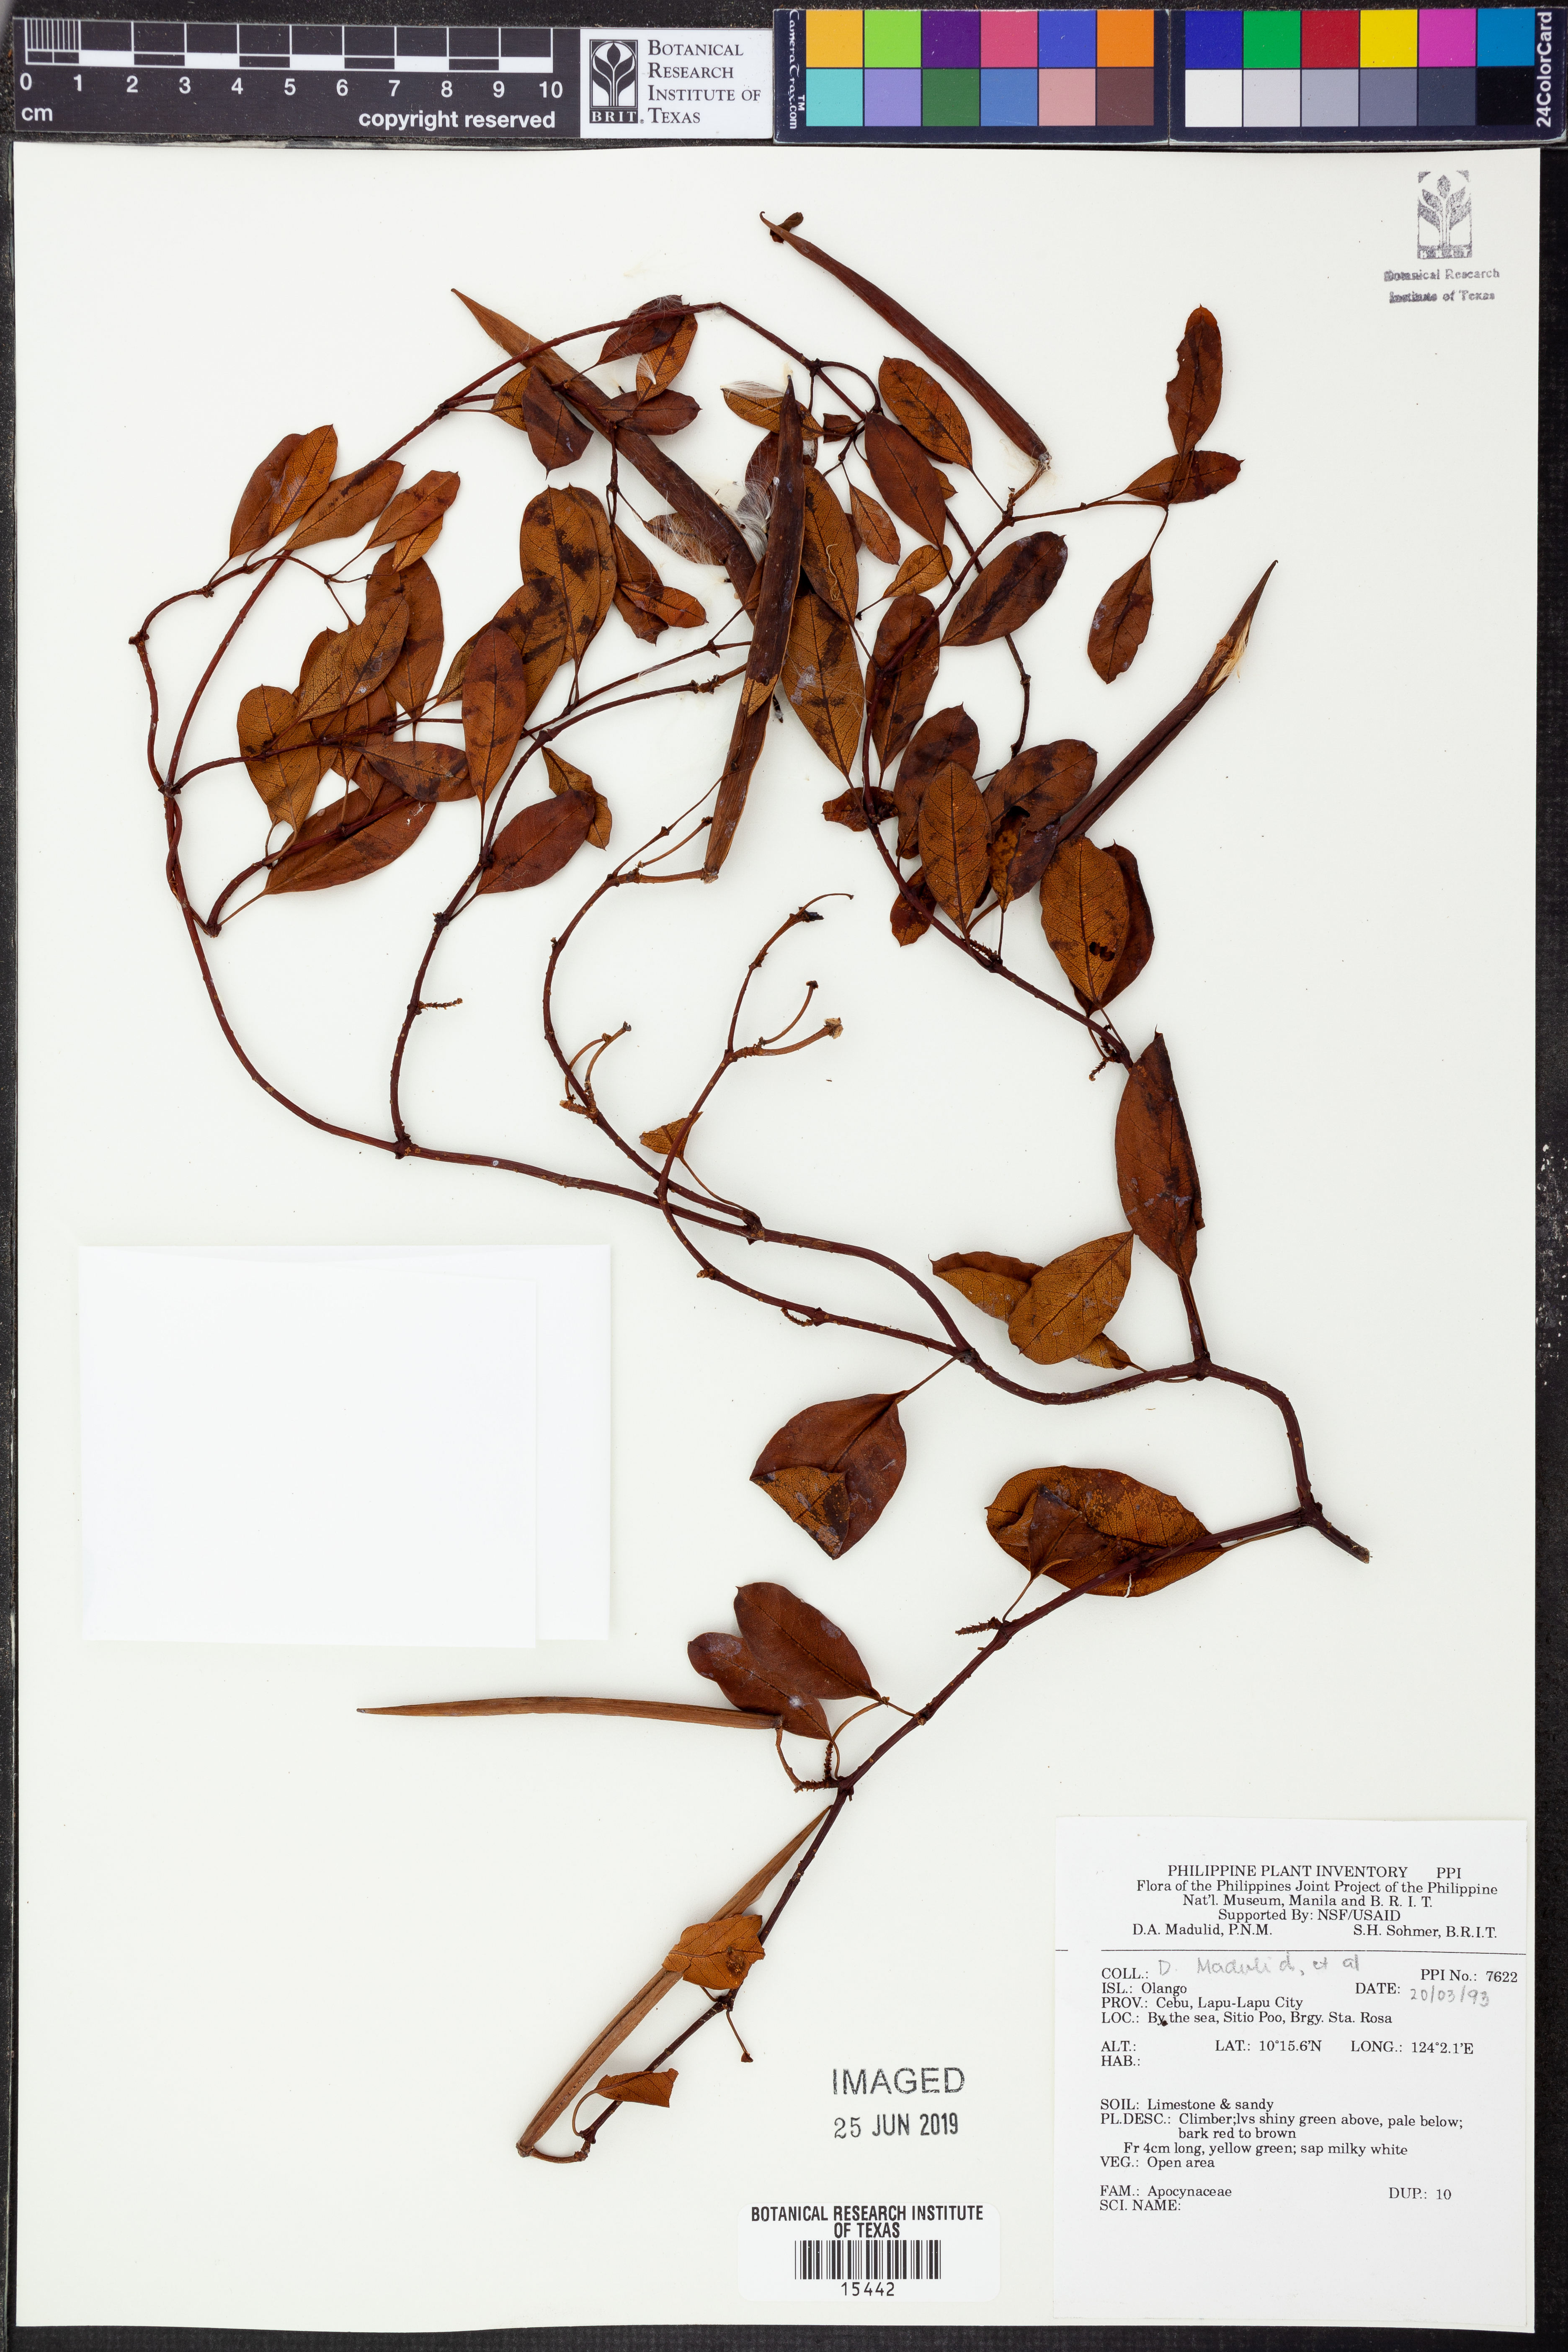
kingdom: Plantae
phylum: Tracheophyta
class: Magnoliopsida
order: Gentianales
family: Apocynaceae
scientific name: Apocynaceae
